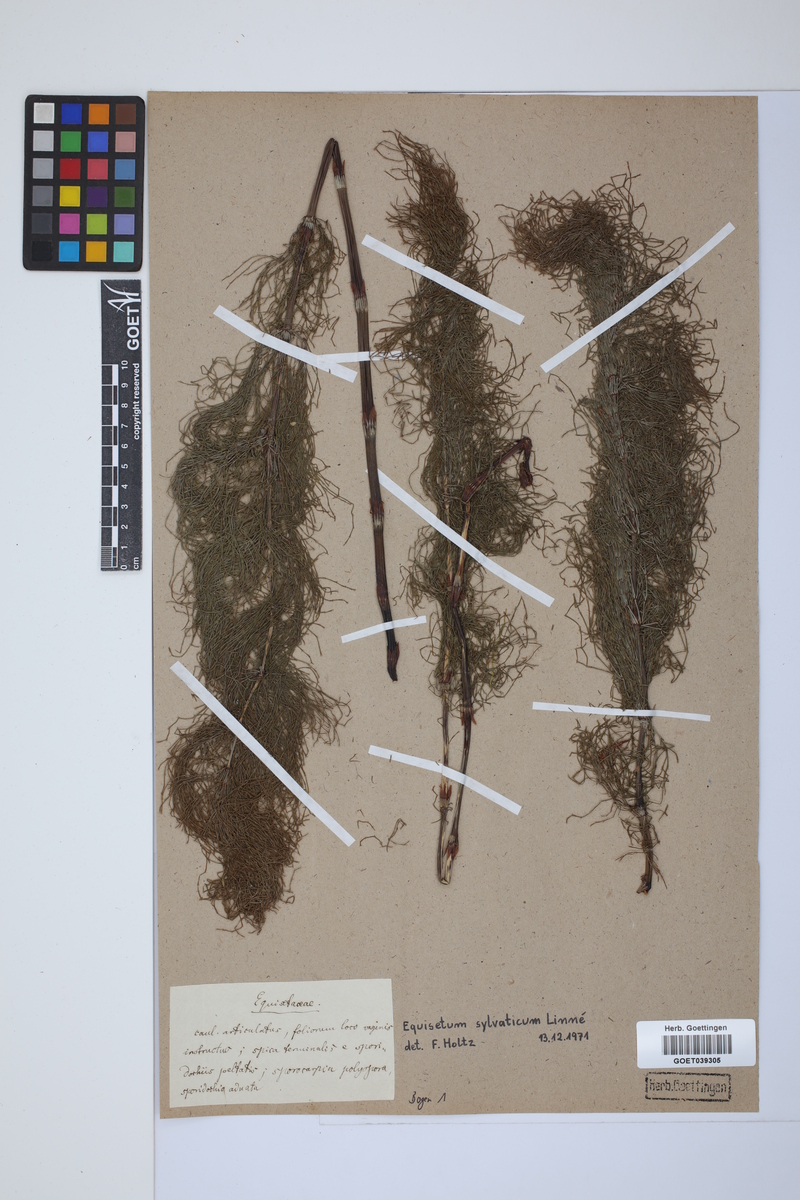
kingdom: Plantae
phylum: Tracheophyta
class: Polypodiopsida
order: Equisetales
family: Equisetaceae
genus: Equisetum
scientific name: Equisetum sylvaticum
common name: Wood horsetail
